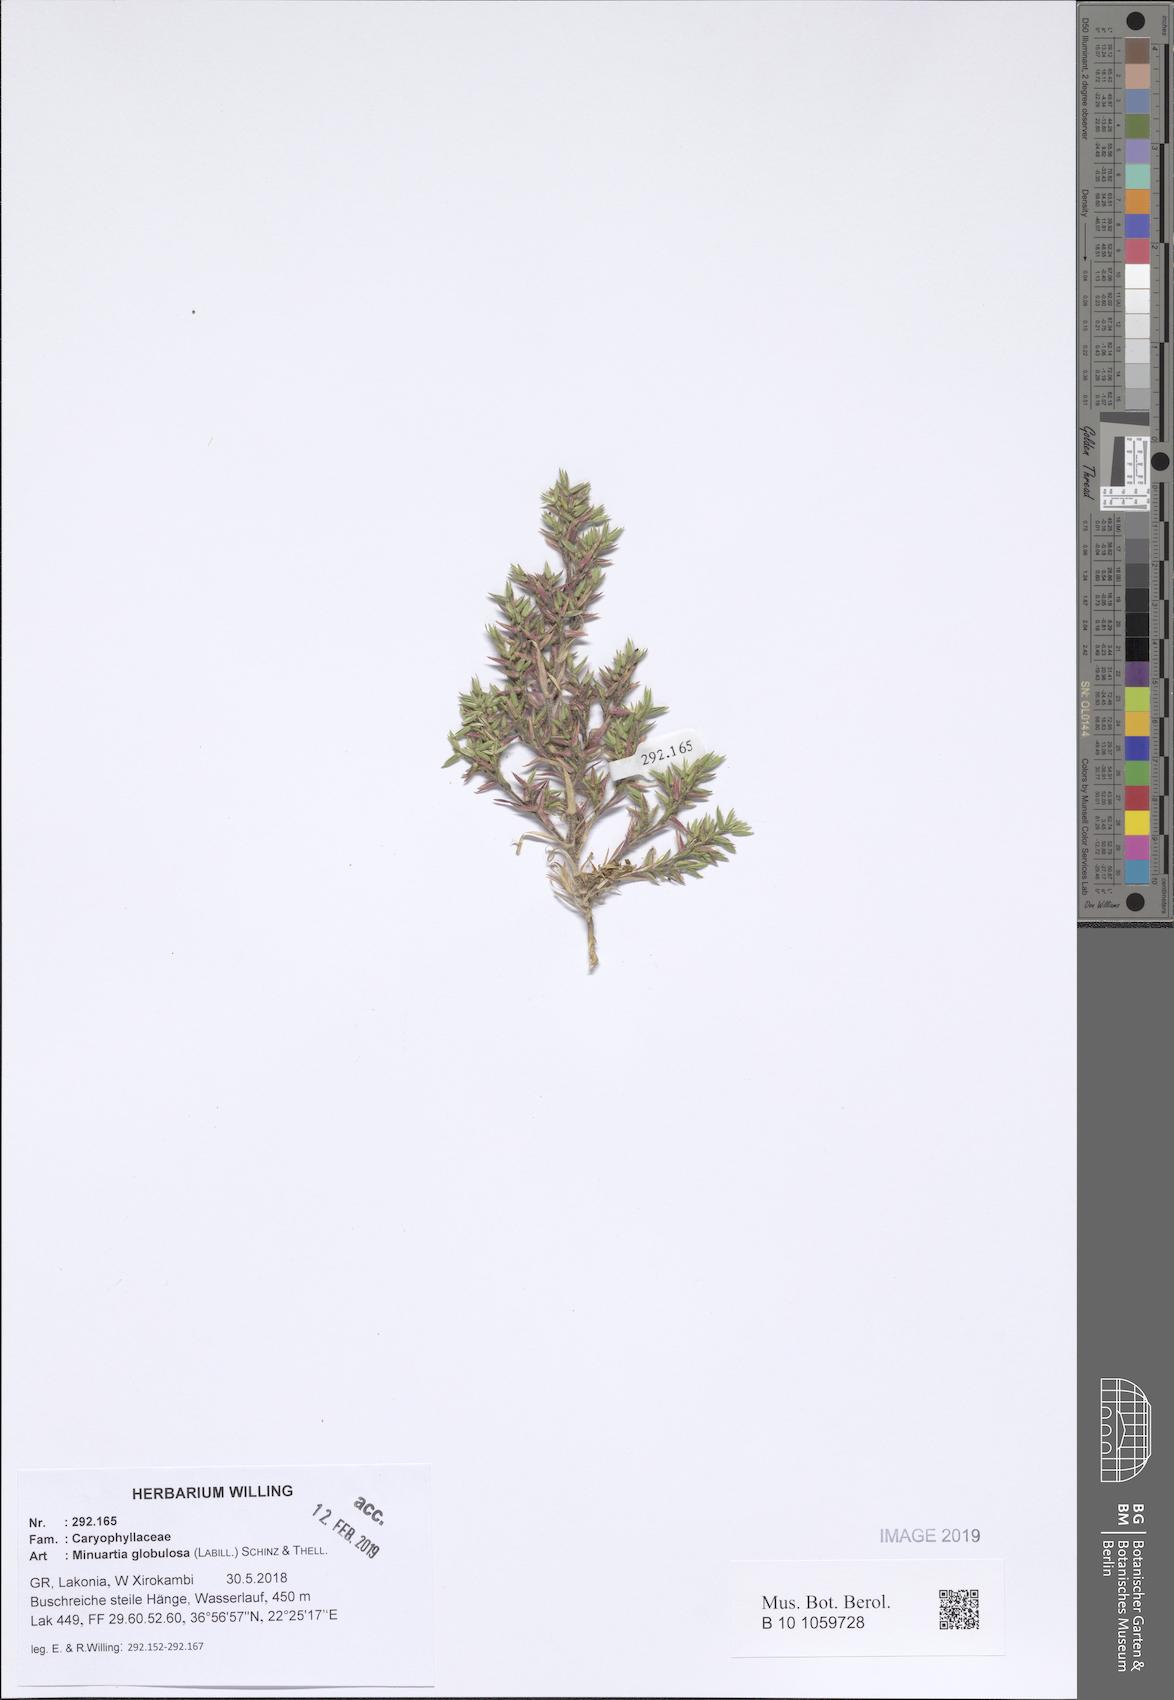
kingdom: Plantae
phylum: Tracheophyta
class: Magnoliopsida
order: Caryophyllales
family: Caryophyllaceae
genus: Minuartia
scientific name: Minuartia globulosa
